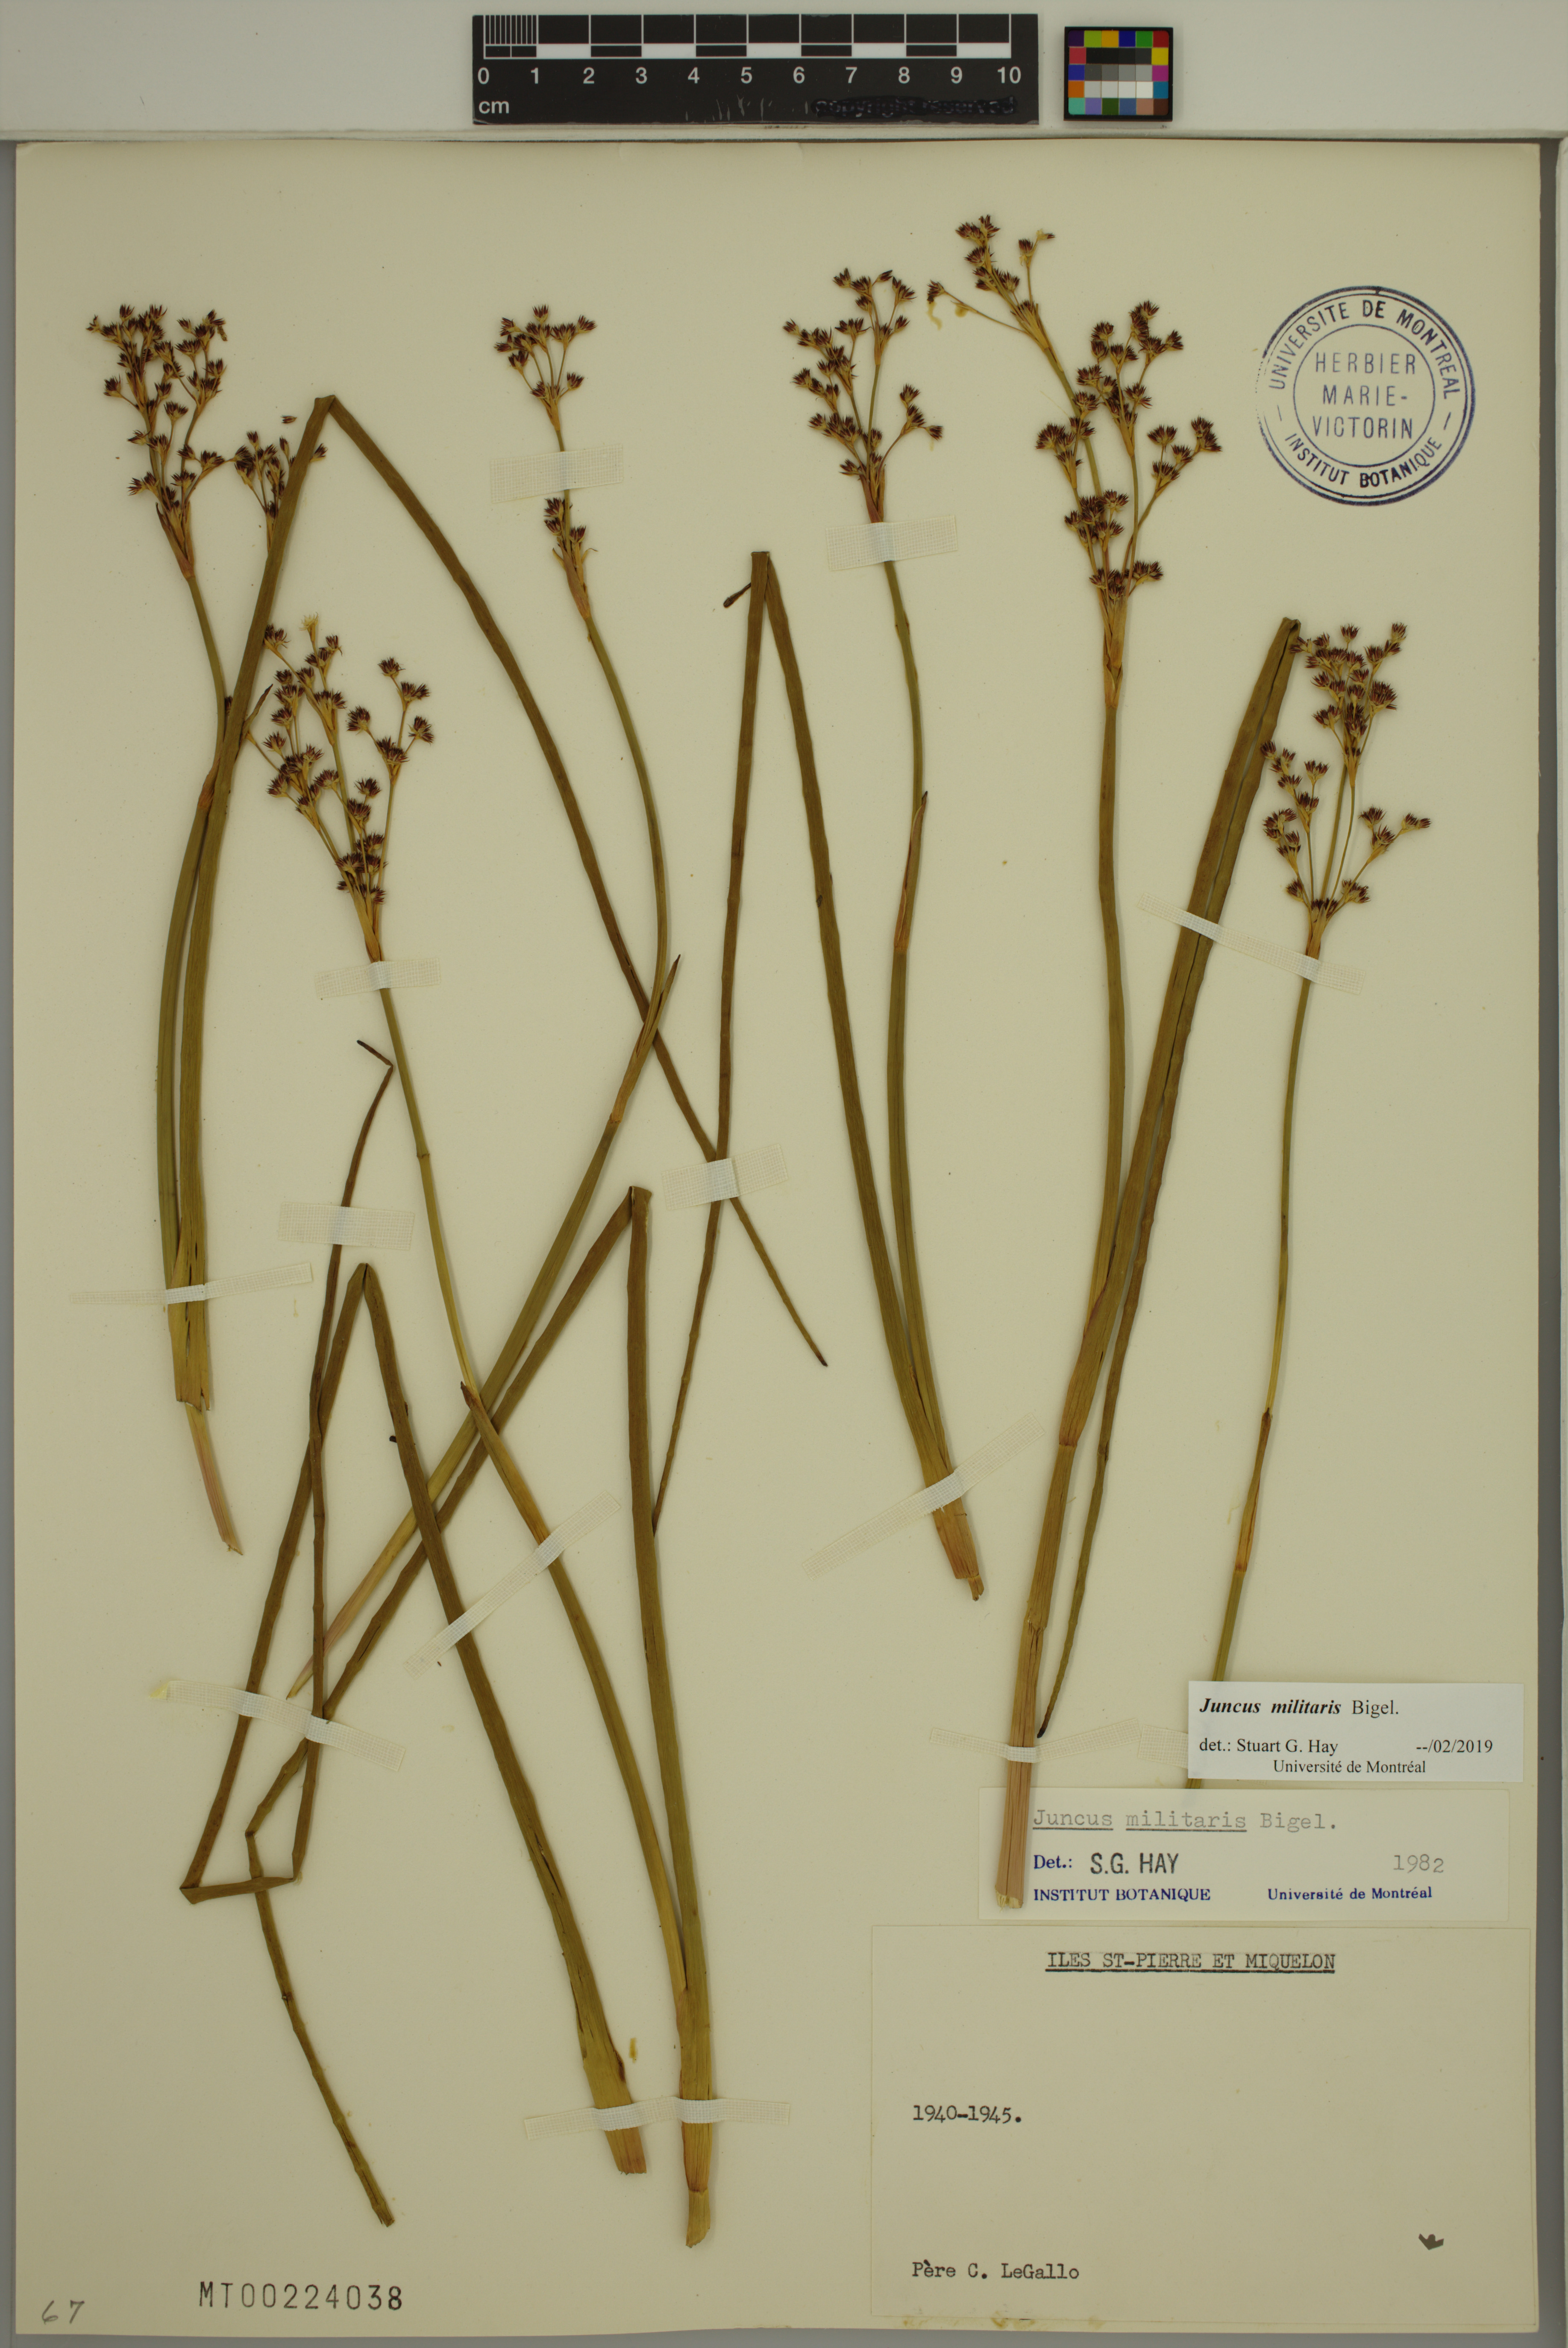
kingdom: Plantae
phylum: Tracheophyta
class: Liliopsida
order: Poales
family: Juncaceae
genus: Juncus
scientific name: Juncus militaris
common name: Bayonet rush
